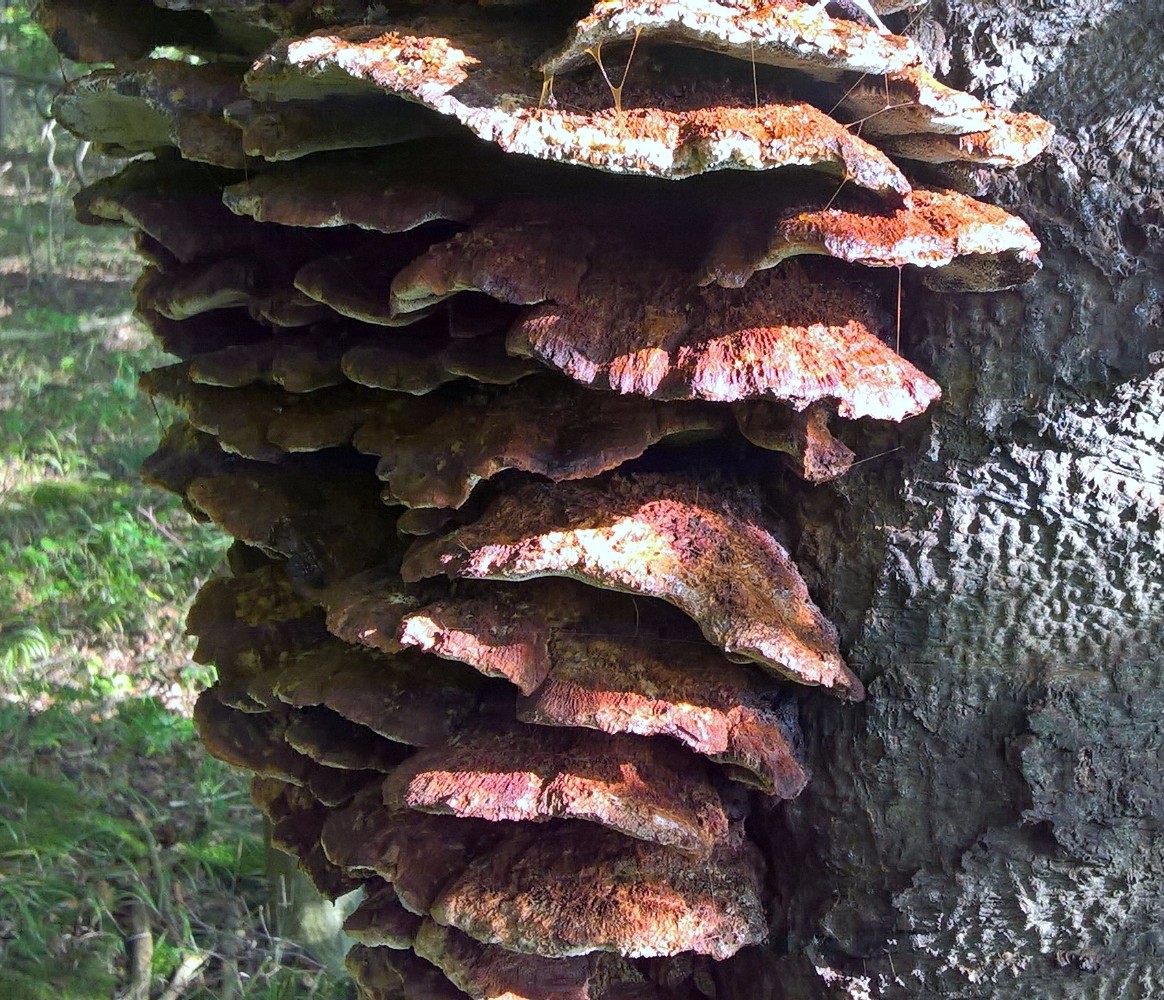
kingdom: Fungi
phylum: Basidiomycota
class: Agaricomycetes
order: Hymenochaetales
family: Hymenochaetaceae
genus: Inonotus
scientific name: Inonotus cuticularis
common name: kroghåret spejlporesvamp
